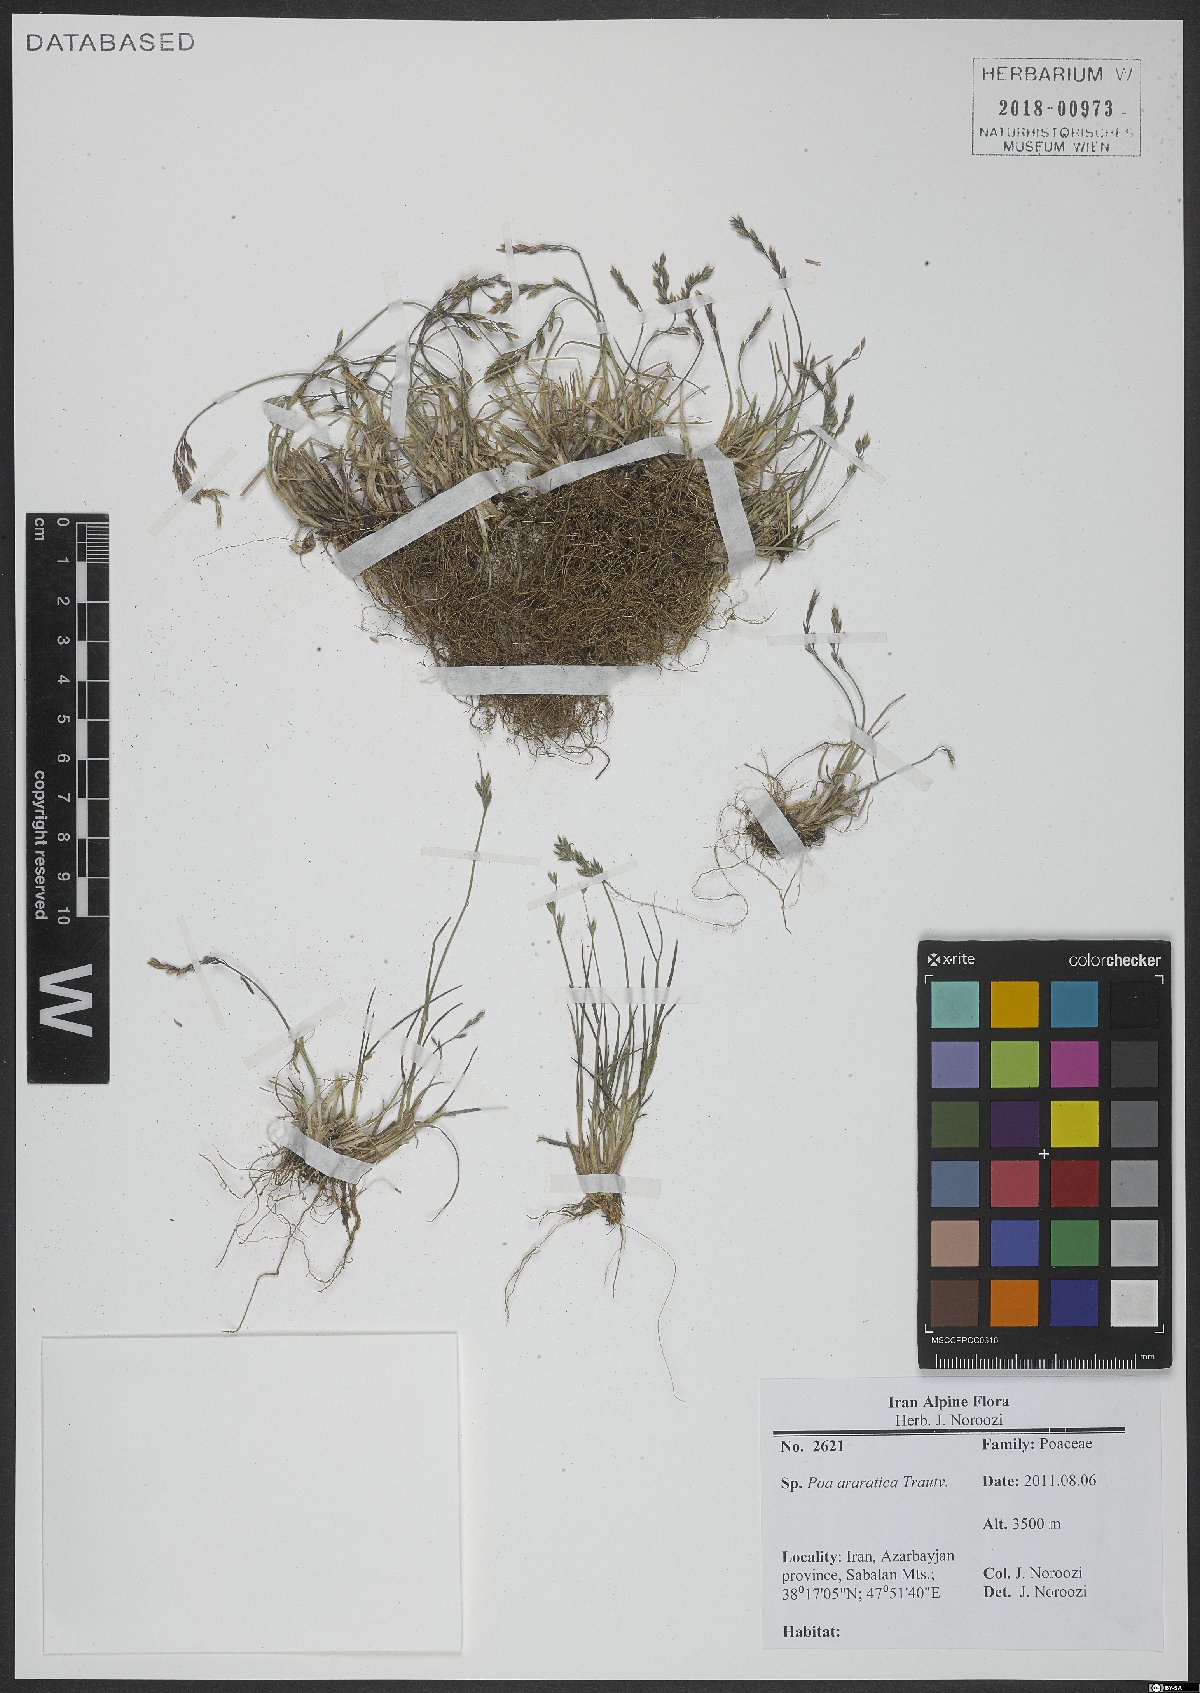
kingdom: Plantae
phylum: Tracheophyta
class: Liliopsida
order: Poales
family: Poaceae
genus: Poa
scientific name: Poa araratica
